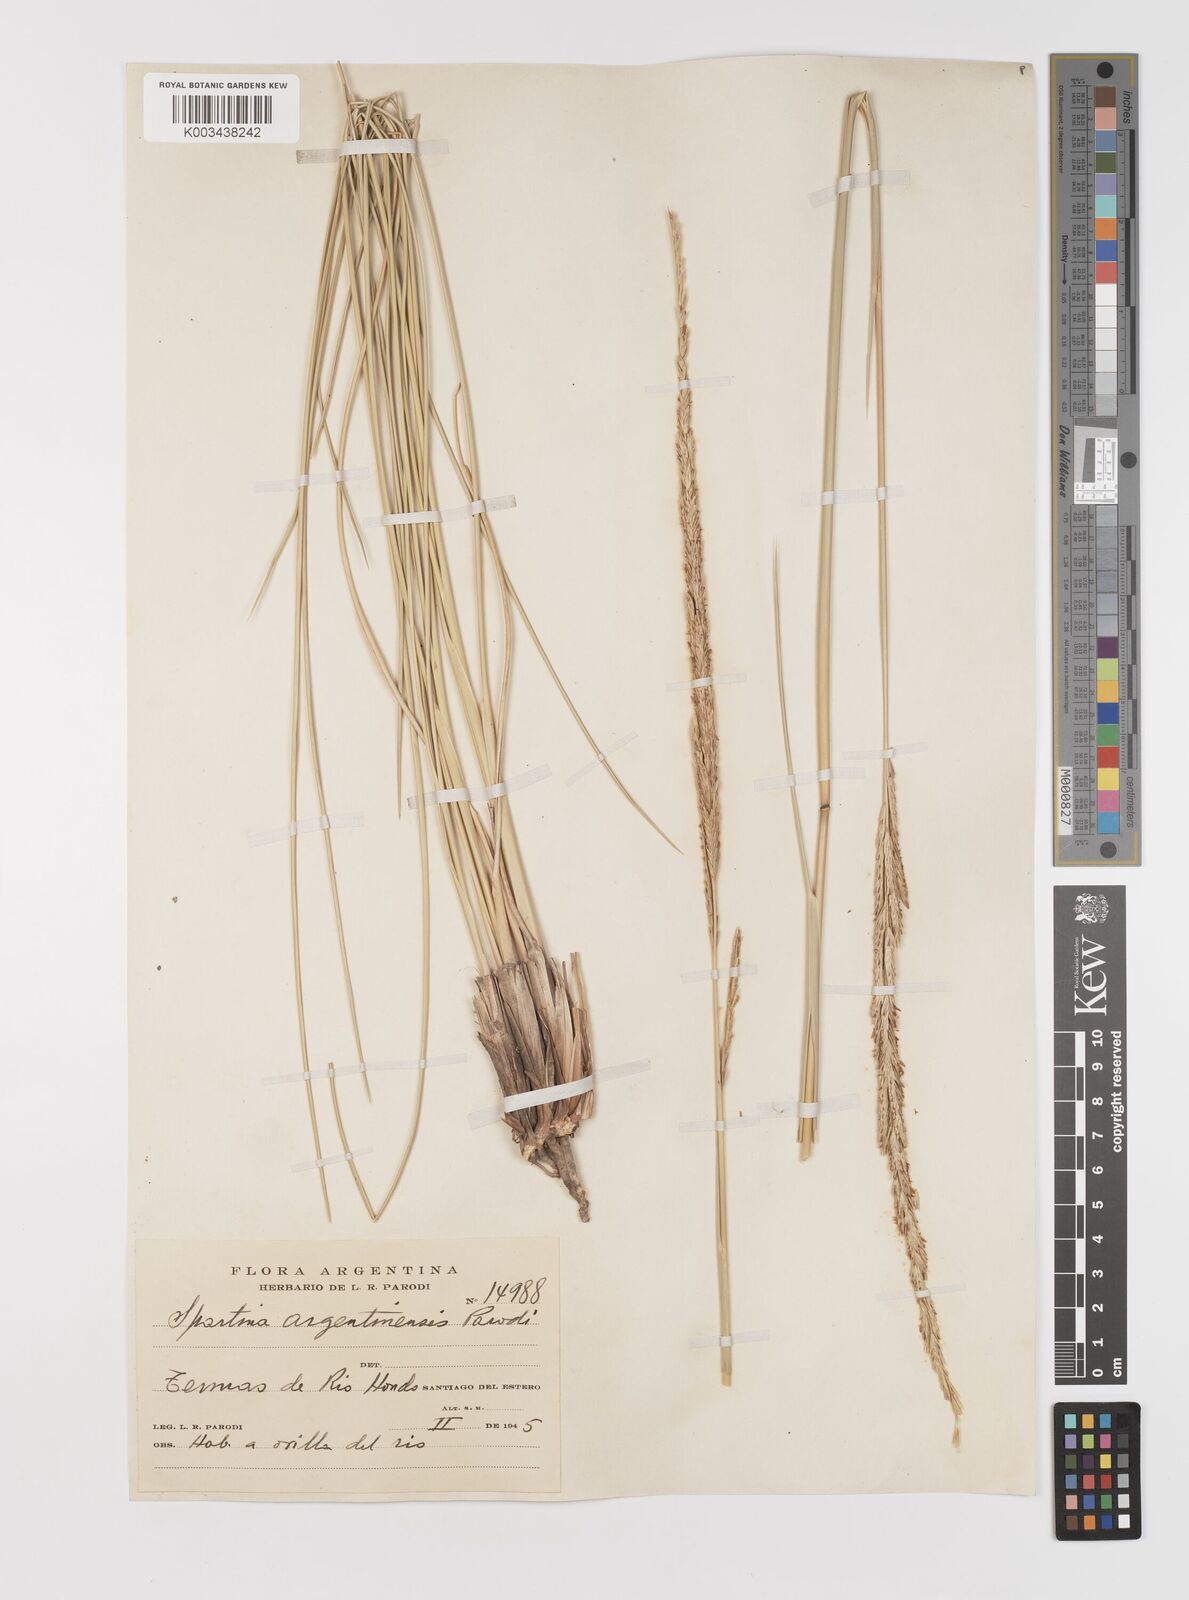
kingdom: Plantae
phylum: Tracheophyta
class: Liliopsida
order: Poales
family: Poaceae
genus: Sporobolus
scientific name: Sporobolus spartinae
